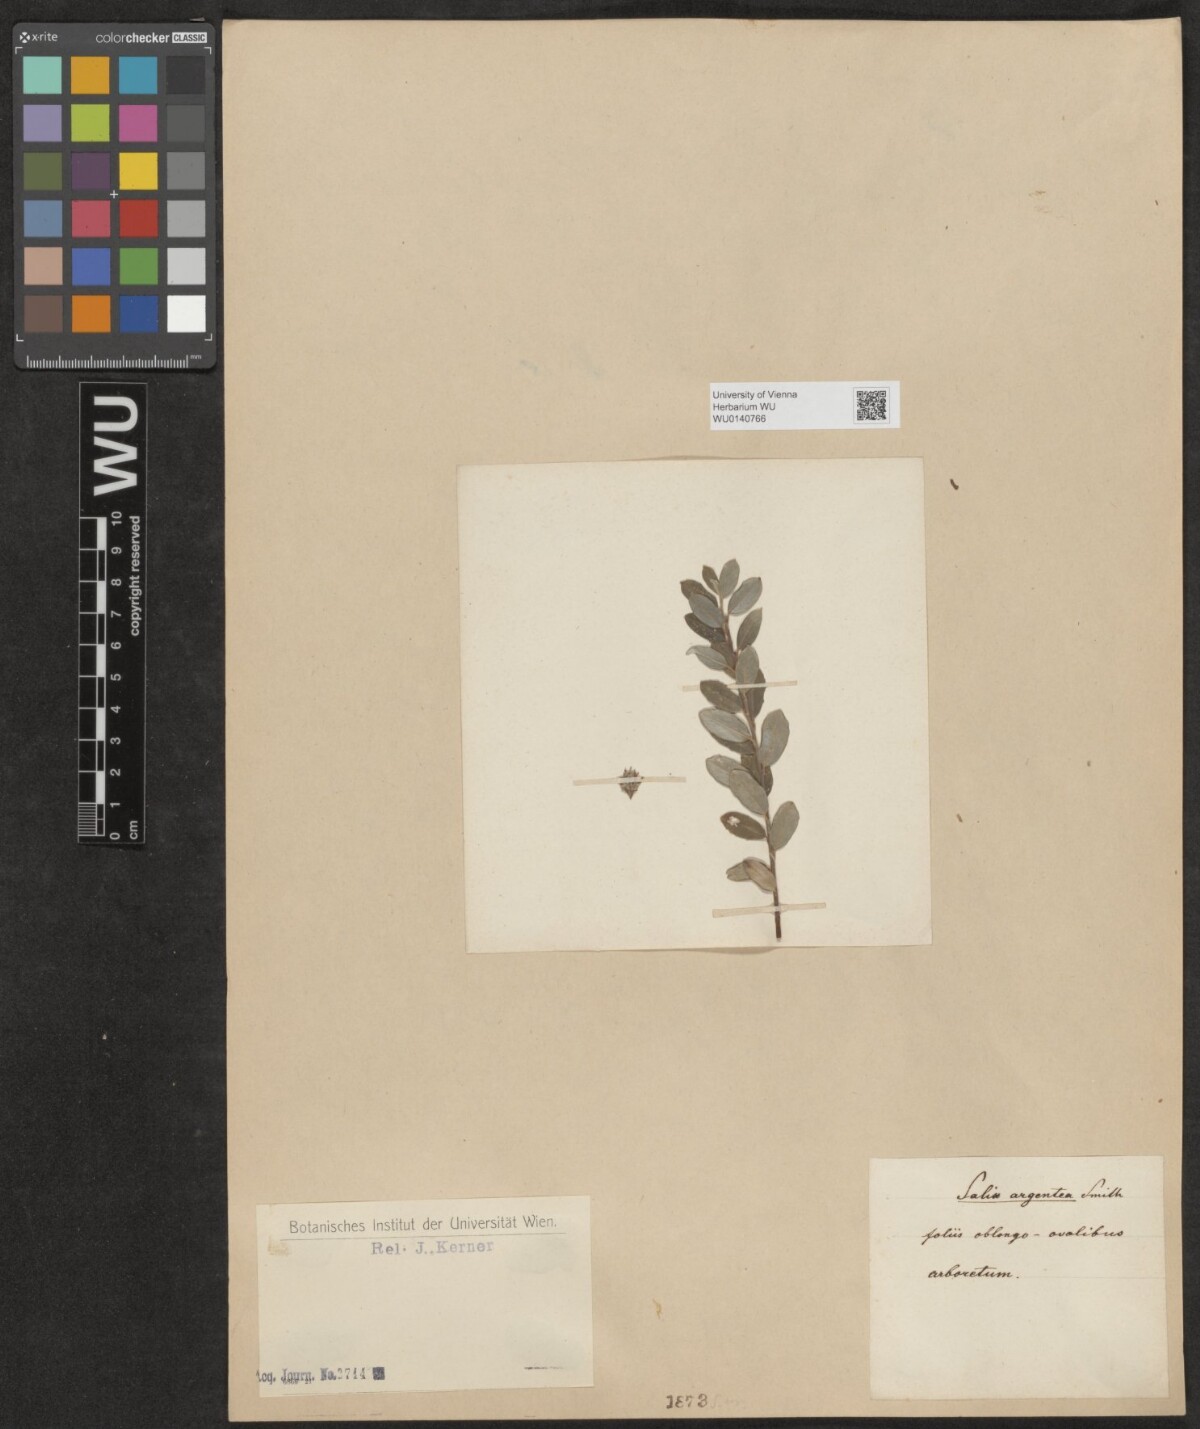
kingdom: Plantae
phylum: Tracheophyta
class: Magnoliopsida
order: Malpighiales
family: Salicaceae
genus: Salix
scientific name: Salix
